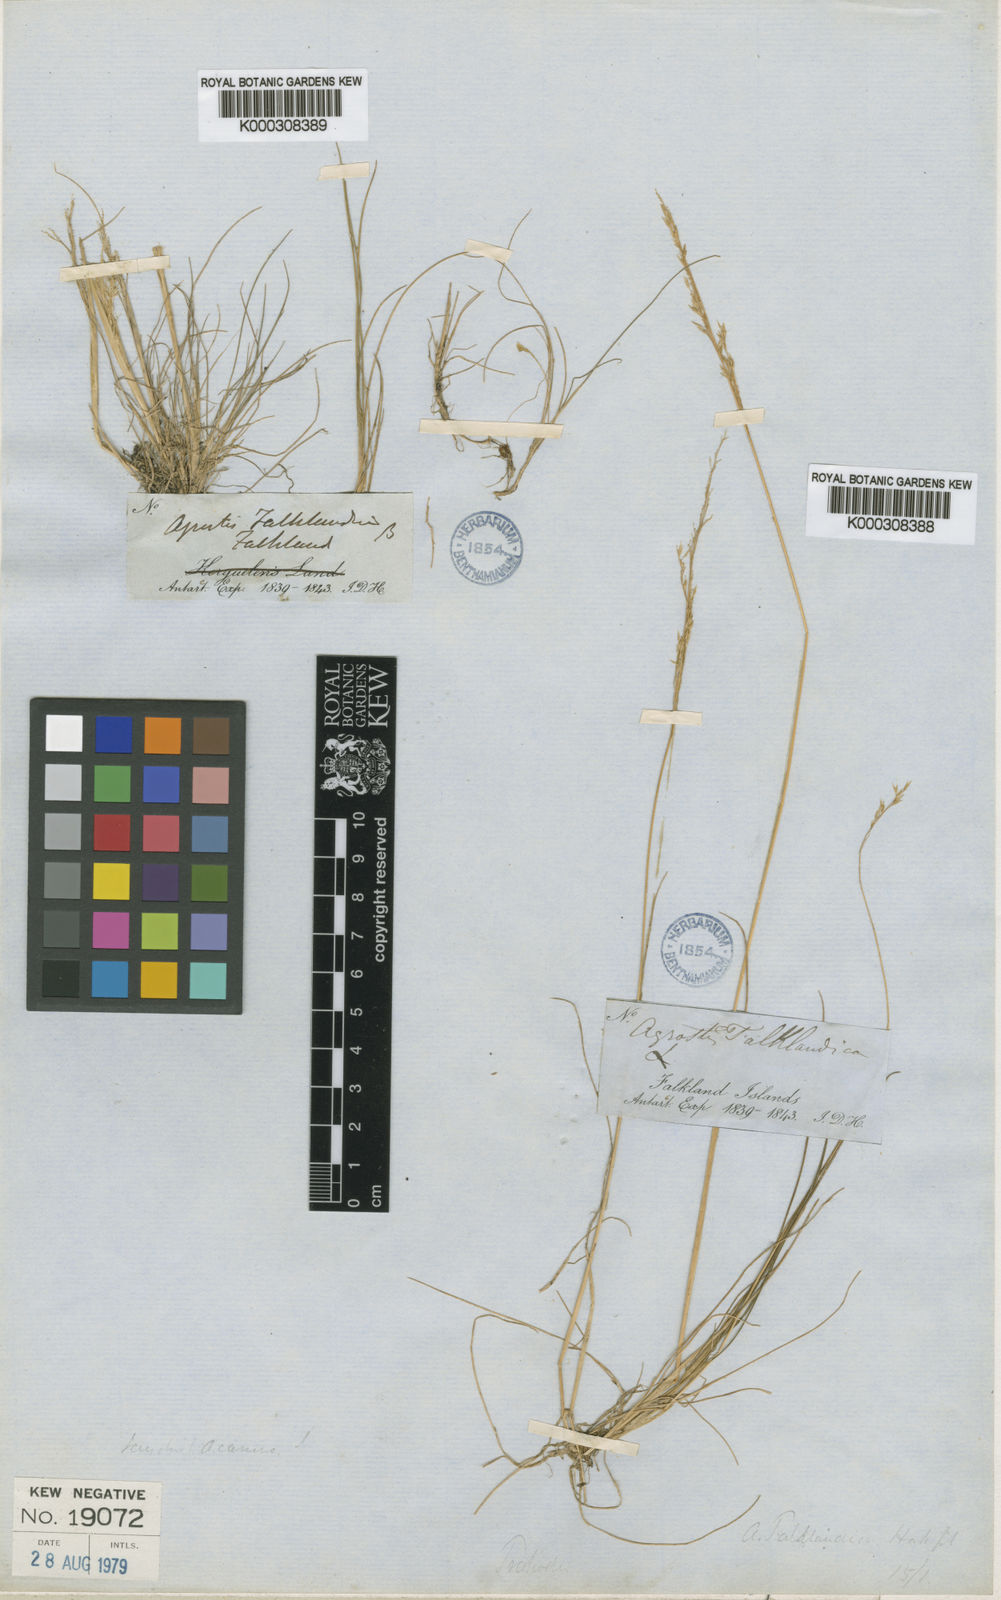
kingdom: Plantae
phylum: Tracheophyta
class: Liliopsida
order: Poales
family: Poaceae
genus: Agrostis
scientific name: Agrostis meyenii
